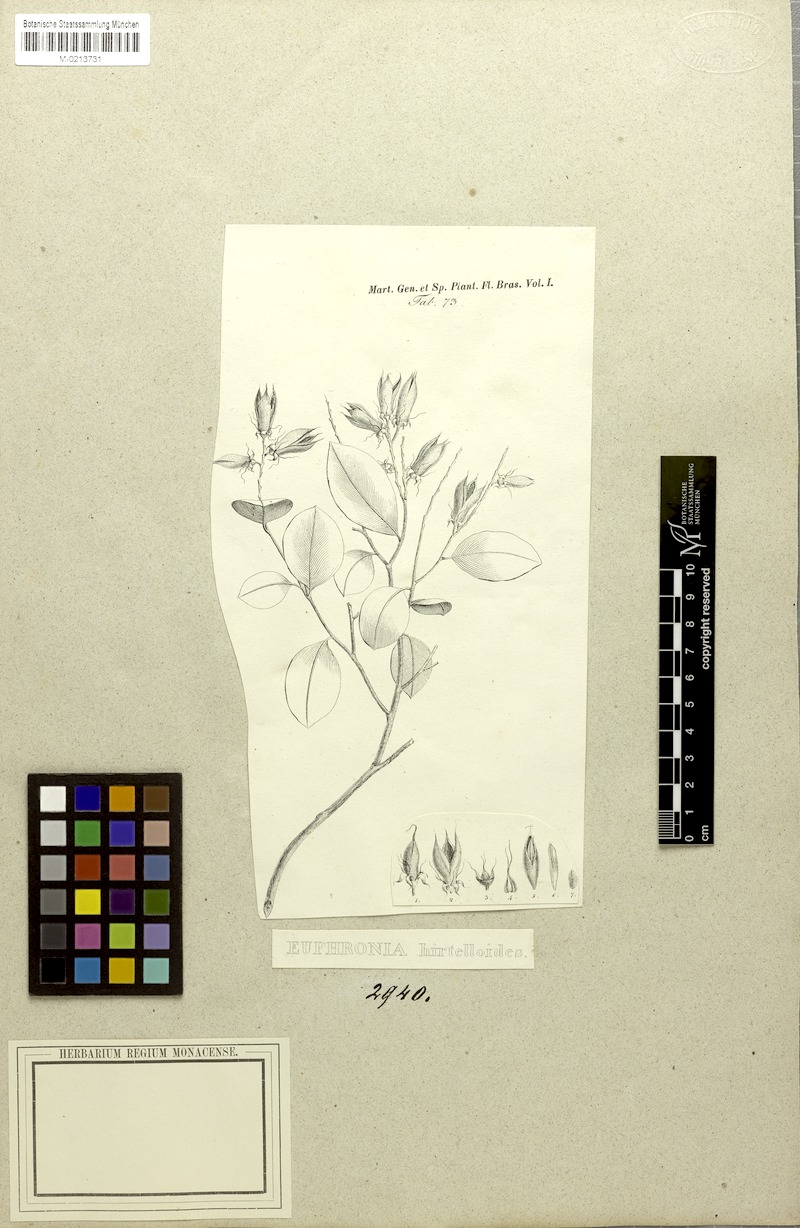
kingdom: Plantae
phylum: Tracheophyta
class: Magnoliopsida
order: Malpighiales
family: Euphroniaceae
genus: Euphronia
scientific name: Euphronia hirtelloides
